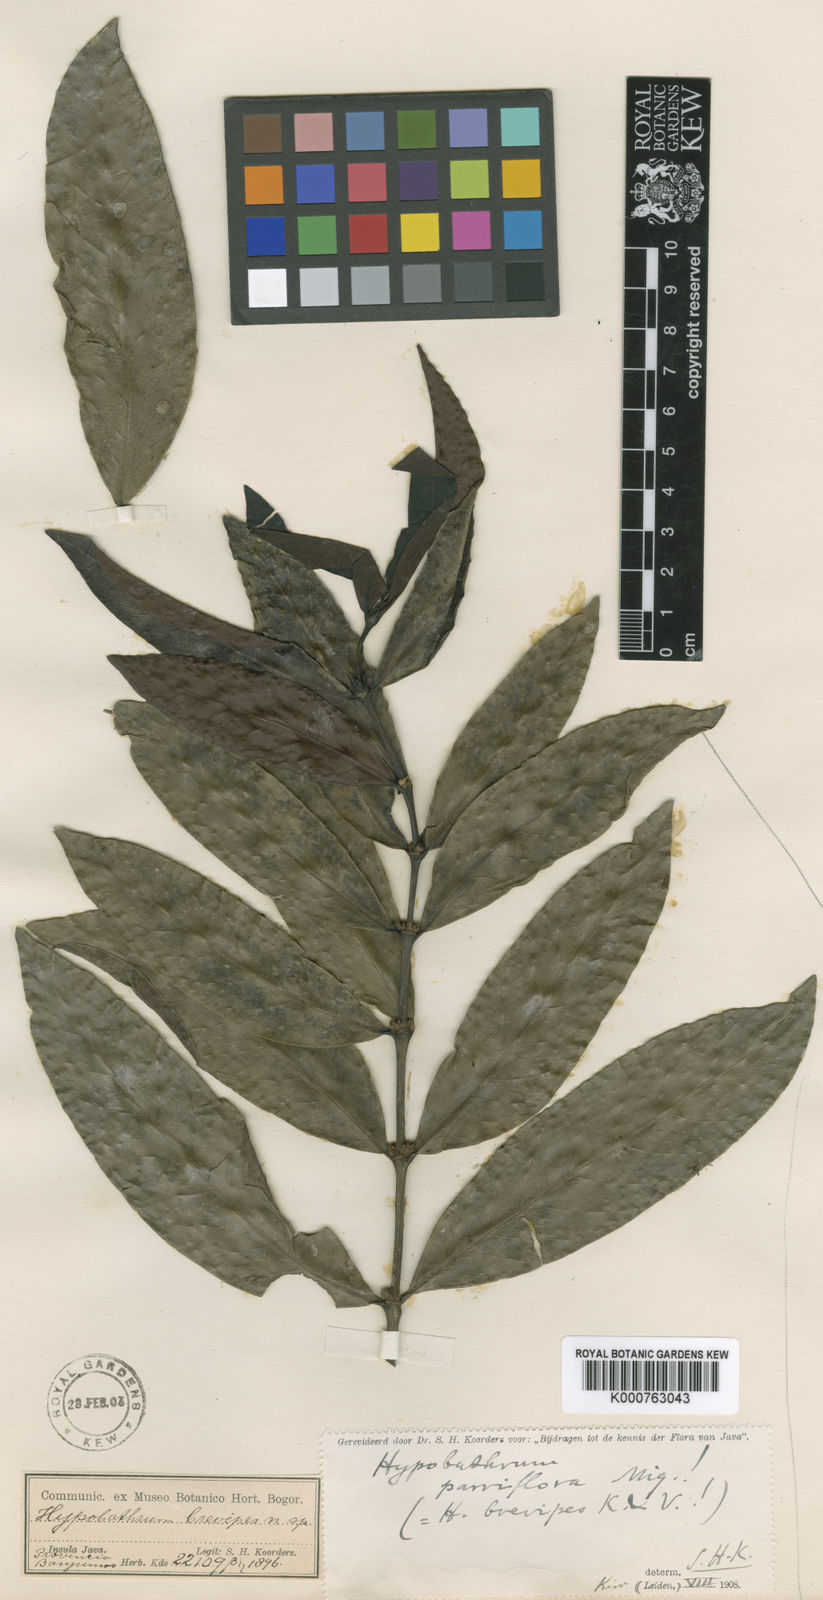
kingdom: Plantae
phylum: Tracheophyta
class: Magnoliopsida
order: Gentianales
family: Rubiaceae
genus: Hypobathrum
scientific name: Hypobathrum parviflorum
